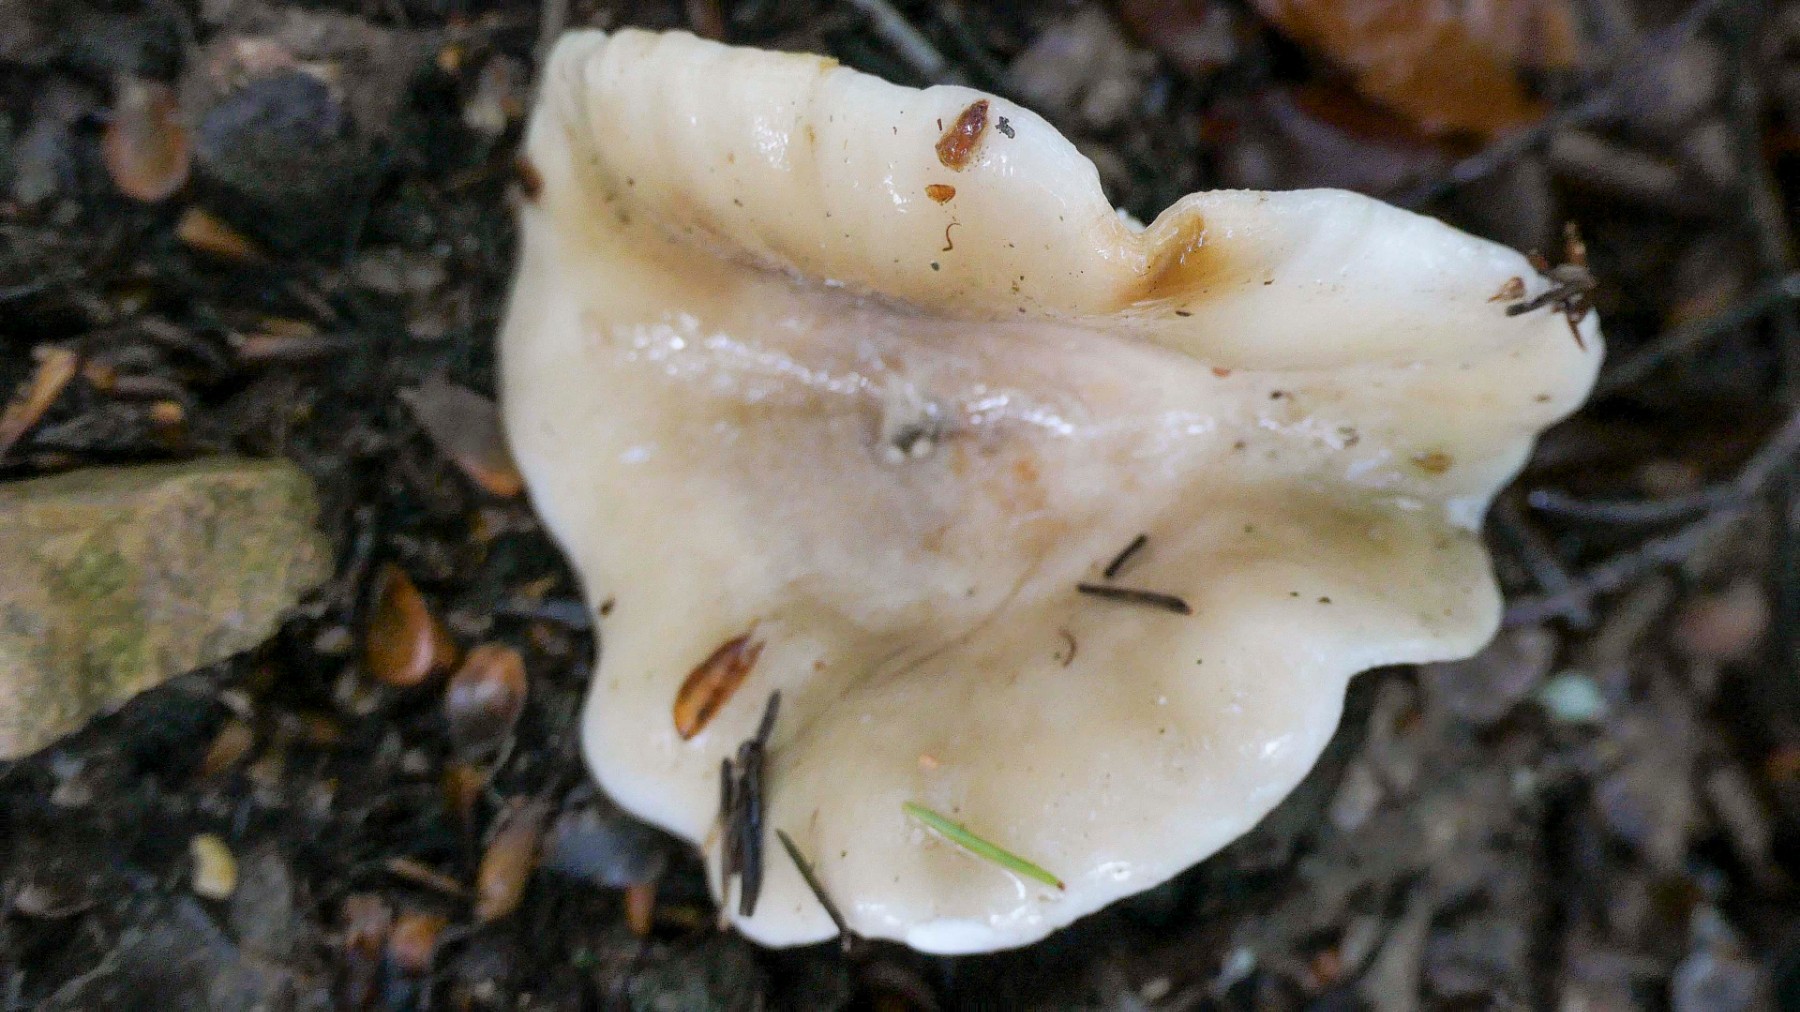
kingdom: Fungi
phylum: Basidiomycota
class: Agaricomycetes
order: Russulales
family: Russulaceae
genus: Lactarius
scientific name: Lactarius fluens
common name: lysrandet mælkehat
